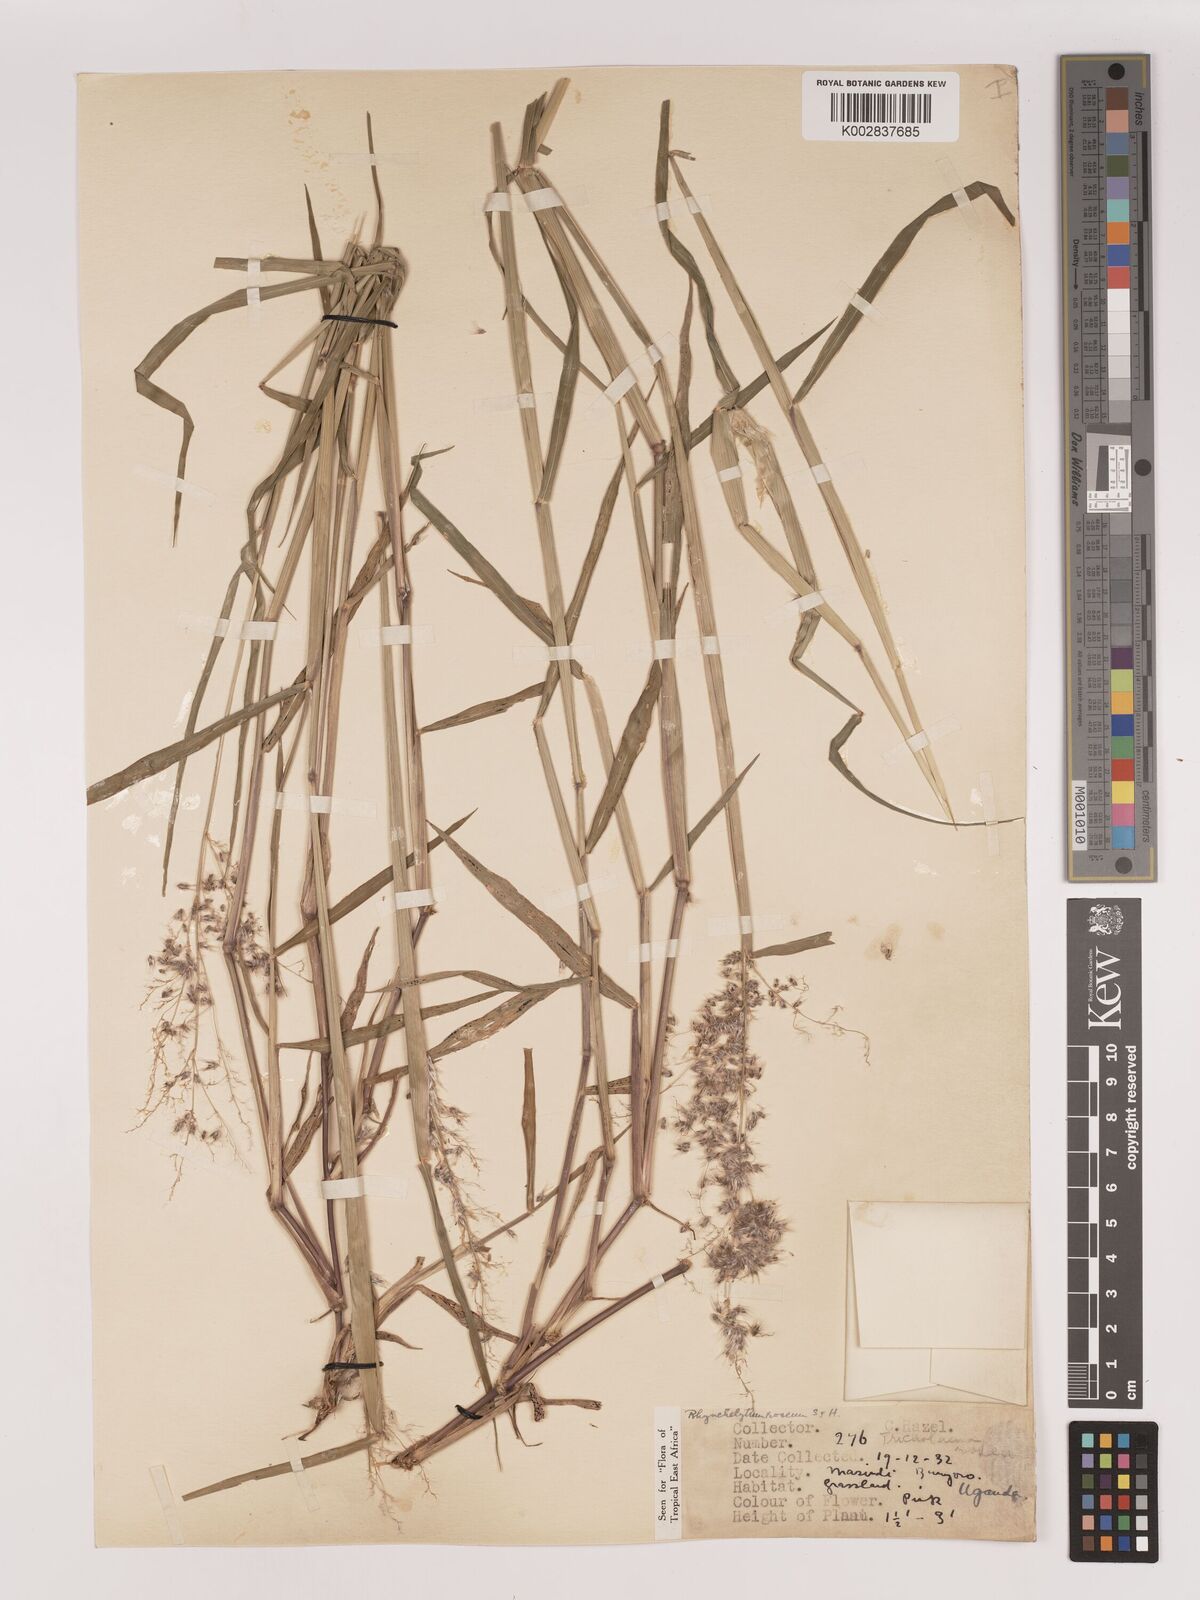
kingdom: Plantae
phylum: Tracheophyta
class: Liliopsida
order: Poales
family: Poaceae
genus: Melinis
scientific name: Melinis repens
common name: Rose natal grass
